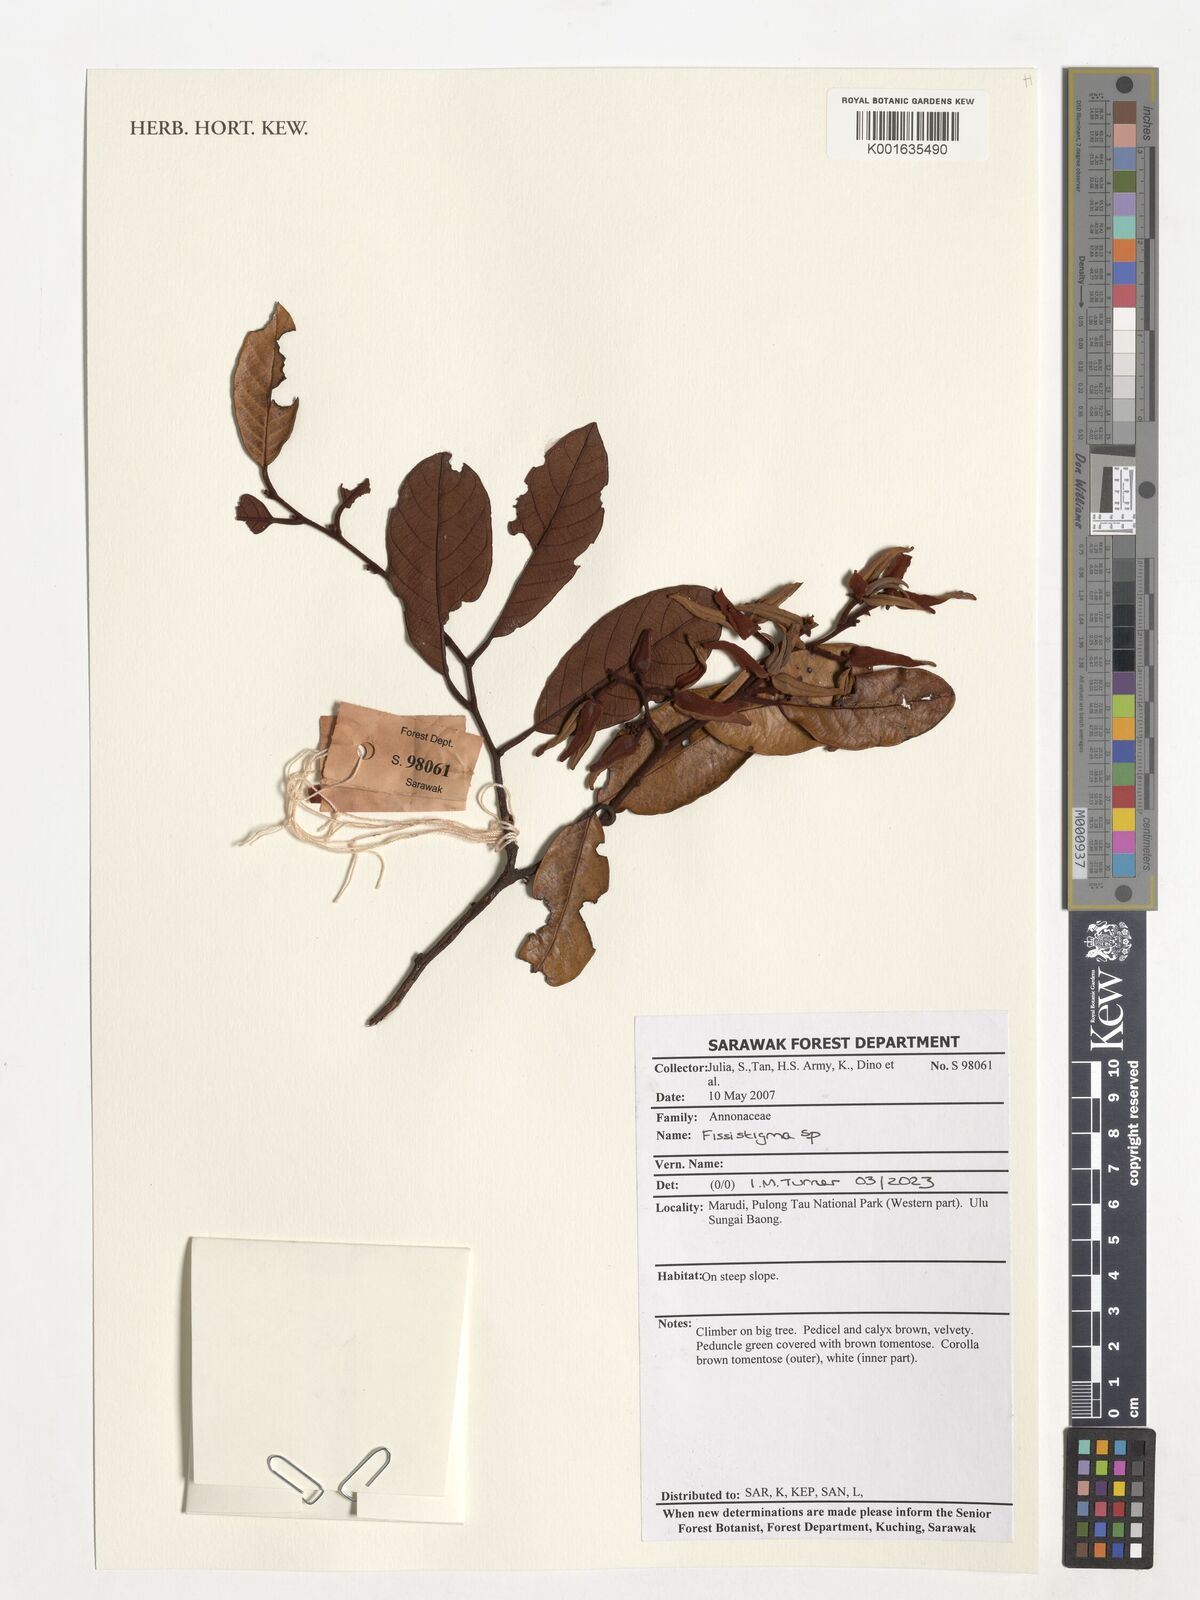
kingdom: Plantae
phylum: Tracheophyta
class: Magnoliopsida
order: Magnoliales
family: Annonaceae
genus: Fissistigma
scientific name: Fissistigma
